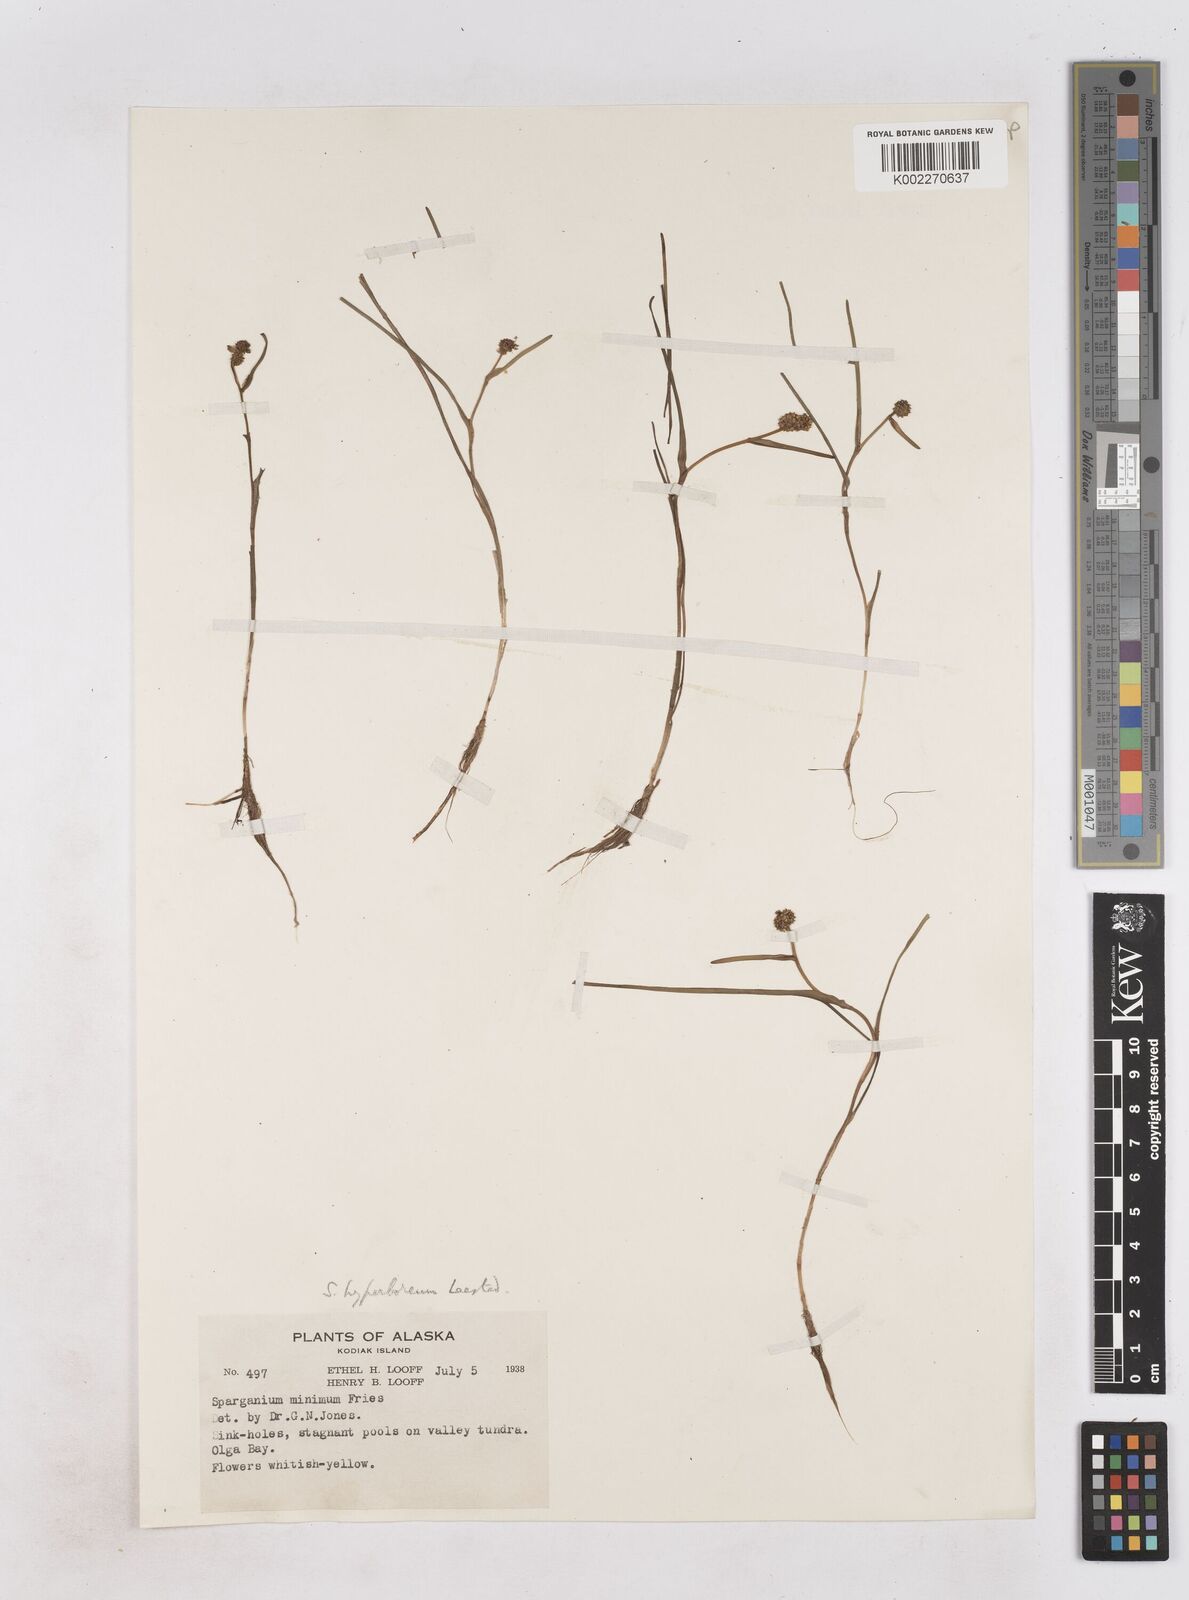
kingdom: Plantae
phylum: Tracheophyta
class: Liliopsida
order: Poales
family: Typhaceae
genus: Sparganium
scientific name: Sparganium hyperboreum
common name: Arctic burreed
